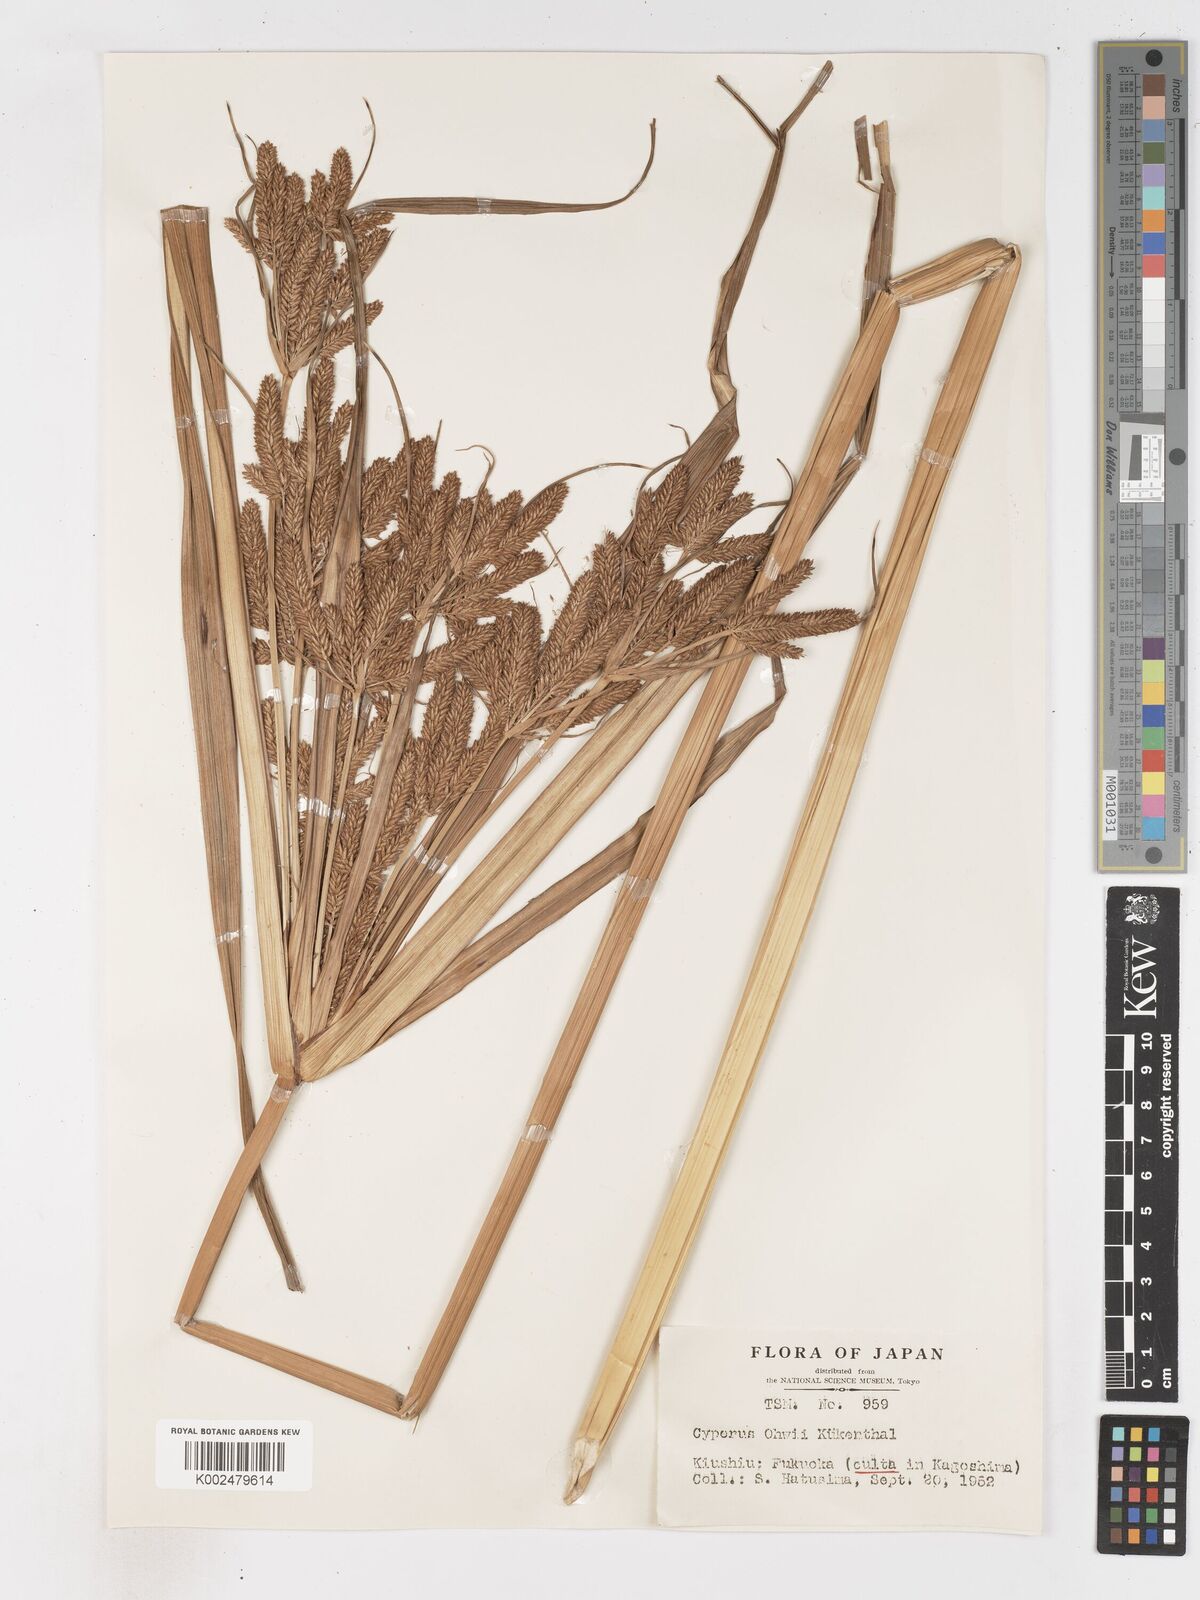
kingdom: Plantae
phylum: Tracheophyta
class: Liliopsida
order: Poales
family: Cyperaceae
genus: Cyperus
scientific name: Cyperus ohwii
